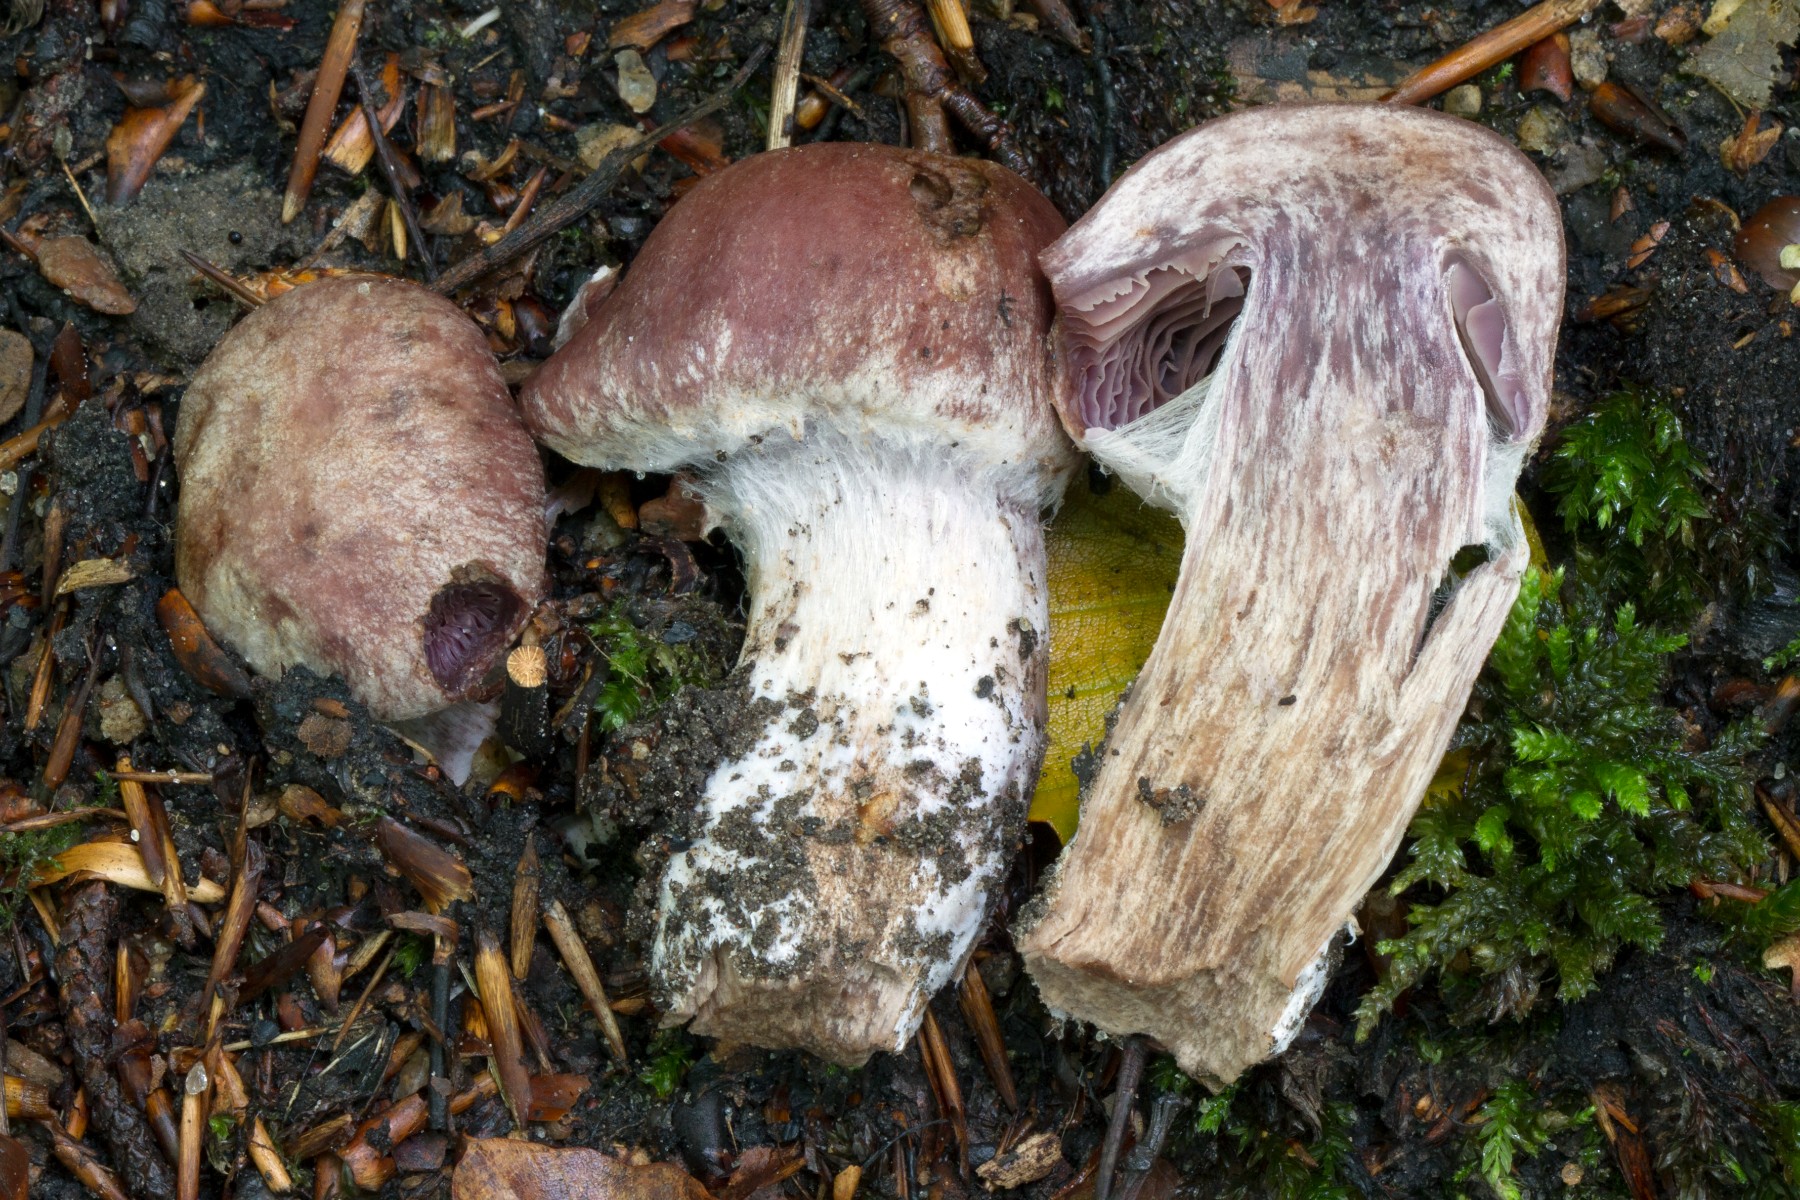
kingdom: Fungi
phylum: Basidiomycota
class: Agaricomycetes
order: Agaricales
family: Cortinariaceae
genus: Cortinarius
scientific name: Cortinarius ainsworthii
